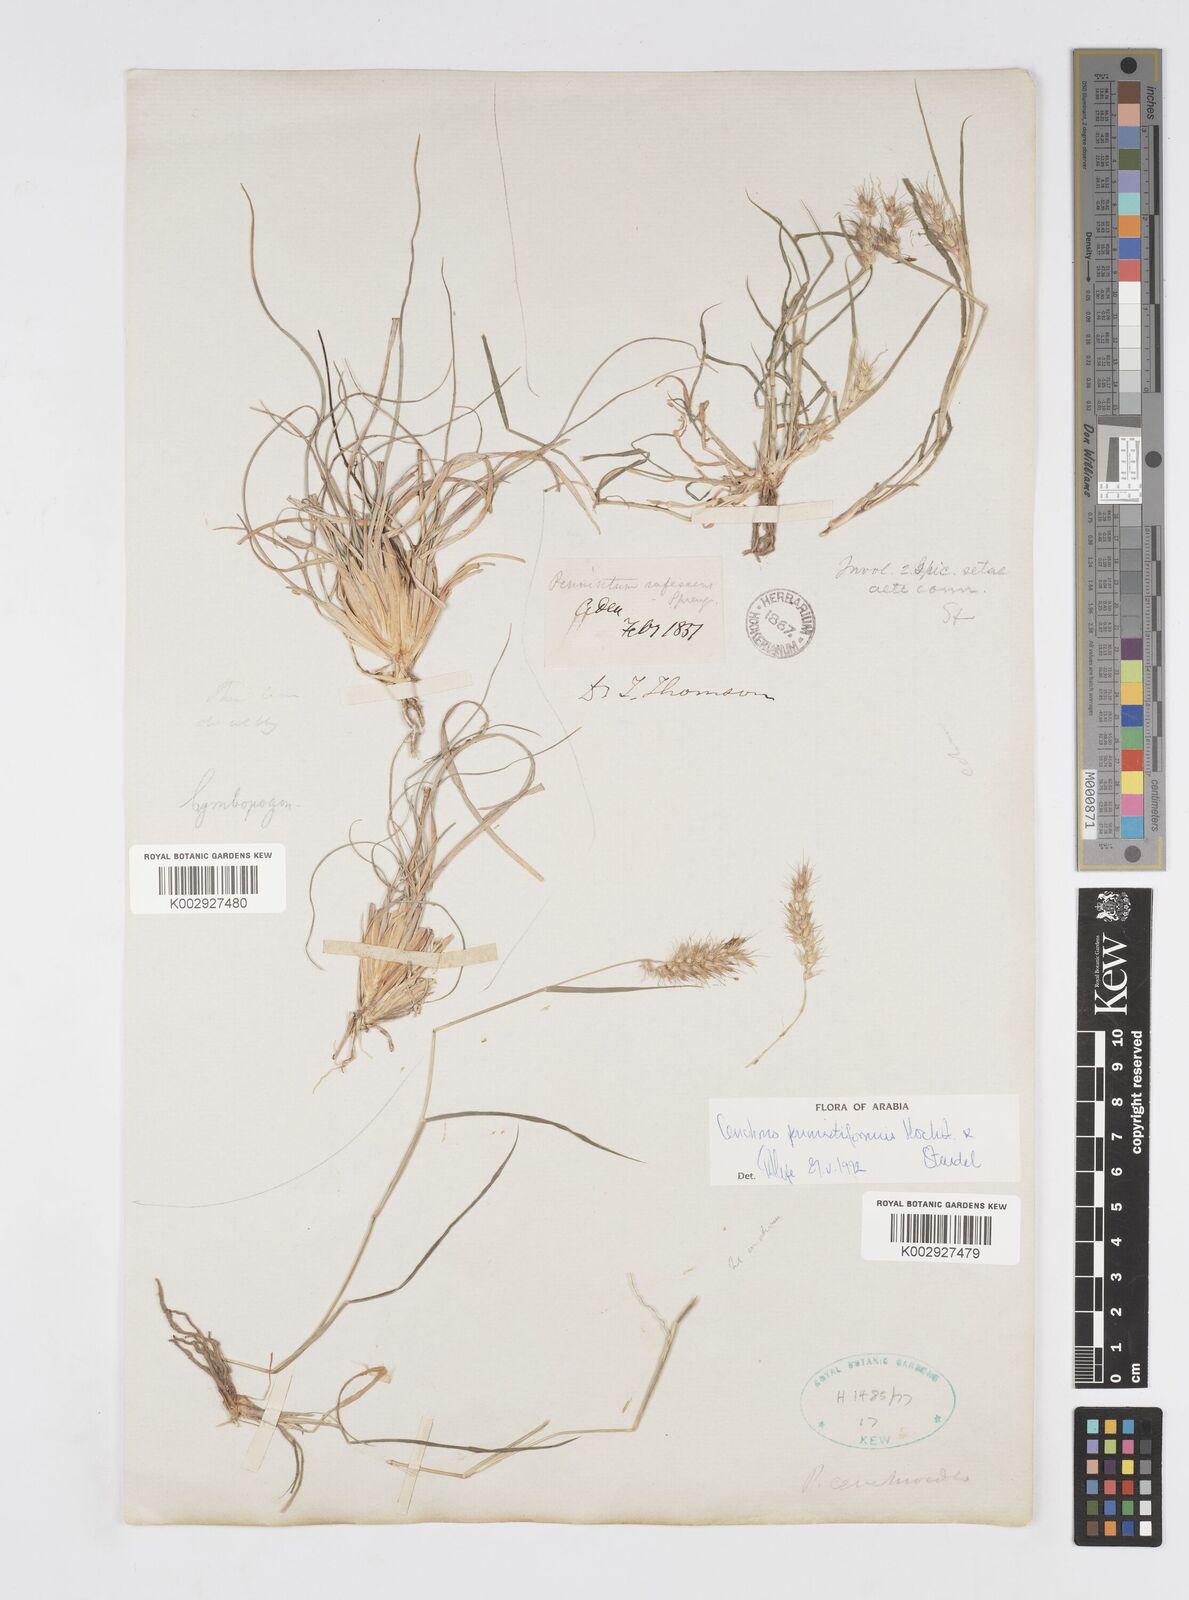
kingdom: Plantae
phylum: Tracheophyta
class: Liliopsida
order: Poales
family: Poaceae
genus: Cenchrus
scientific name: Cenchrus pennisetiformis
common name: Cloncurry
